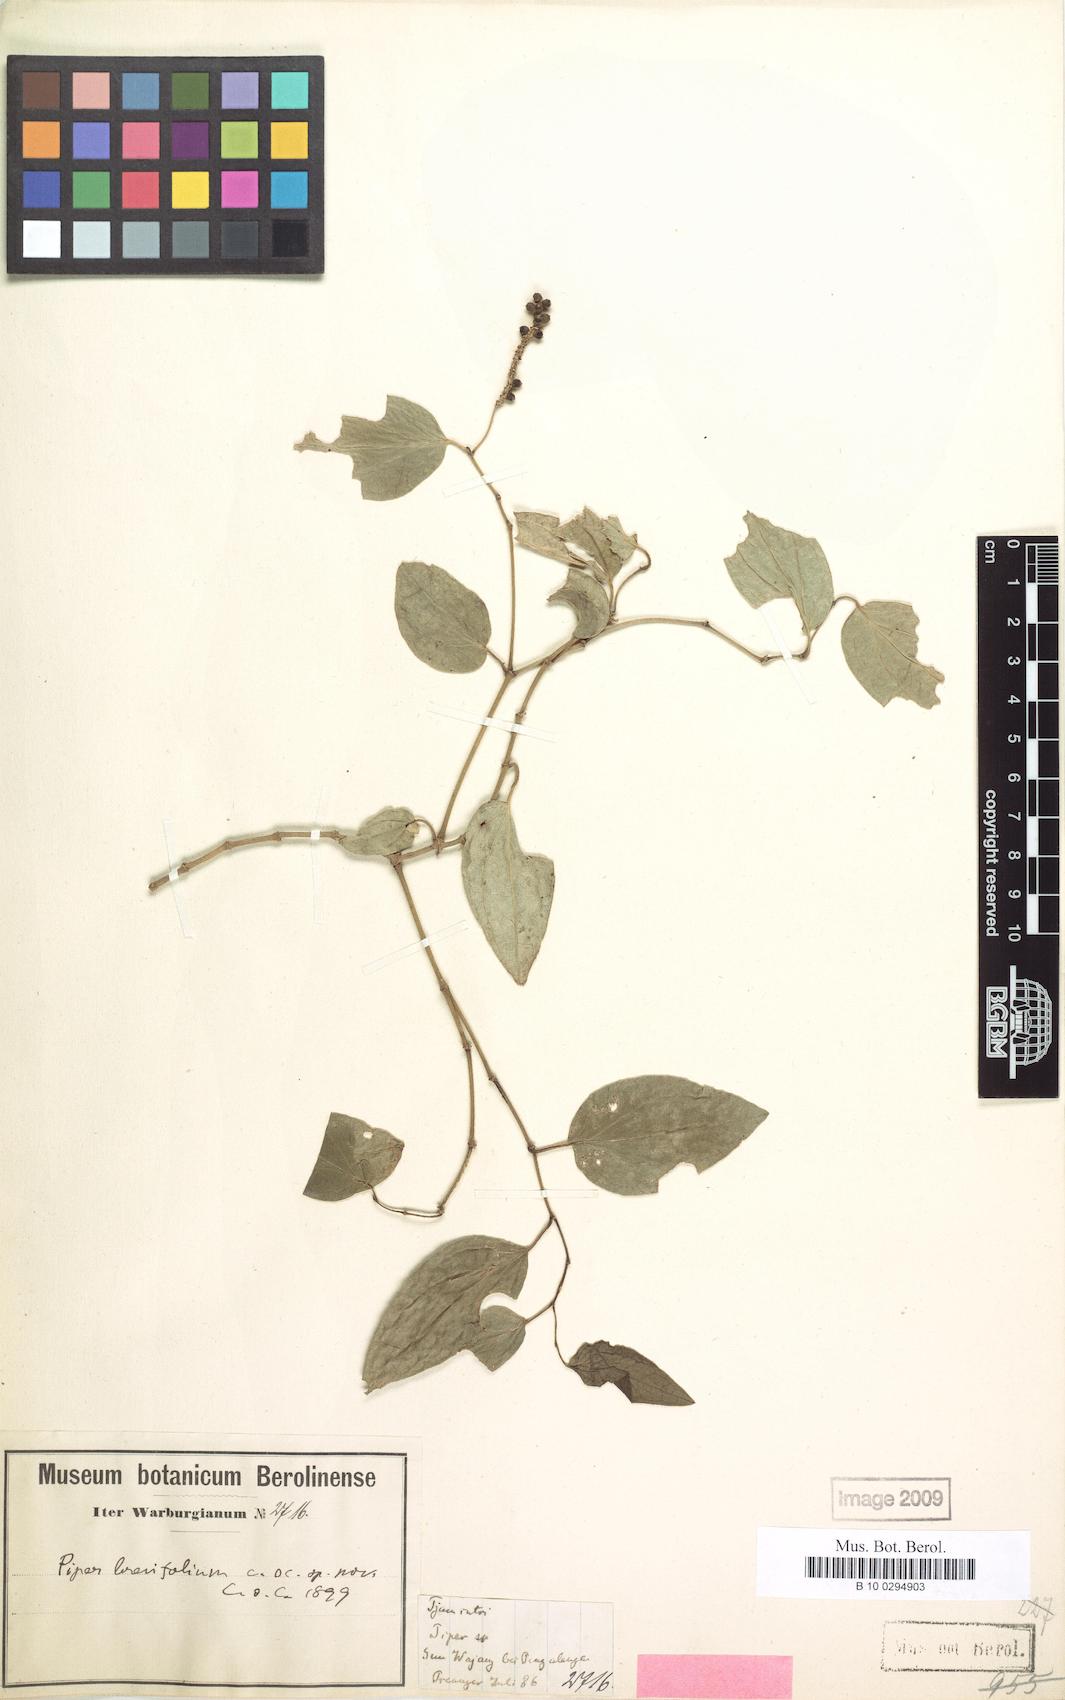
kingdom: Plantae
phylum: Tracheophyta
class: Magnoliopsida
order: Piperales
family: Piperaceae
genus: Piper
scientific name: Piper brevifolium
